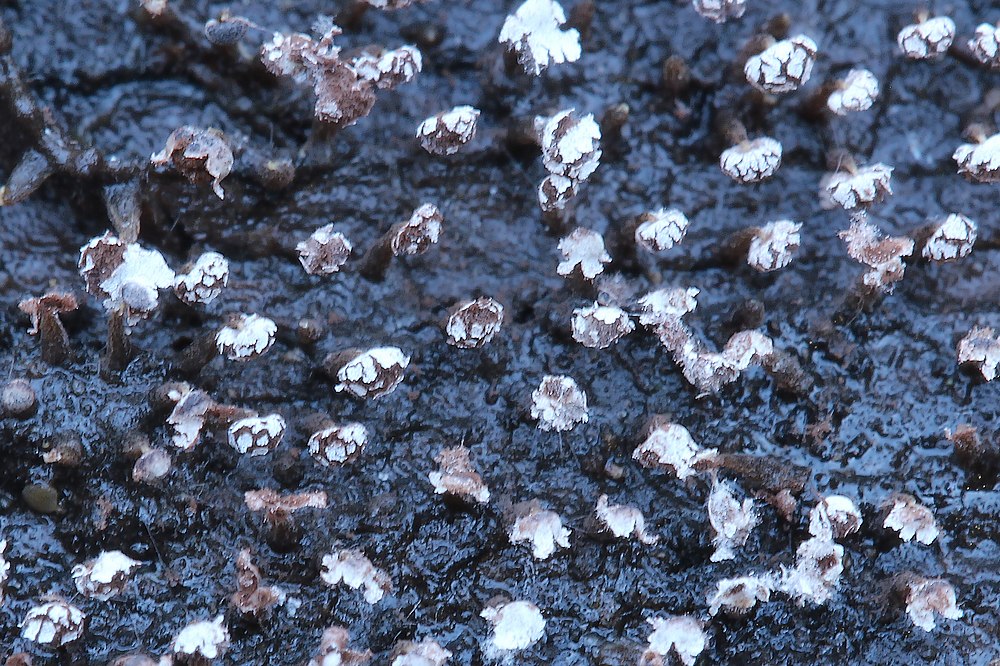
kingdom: Protozoa
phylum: Mycetozoa
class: Myxomycetes
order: Physarales
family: Physaraceae
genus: Physarum
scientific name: Physarum album
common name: nikkende støvknop
